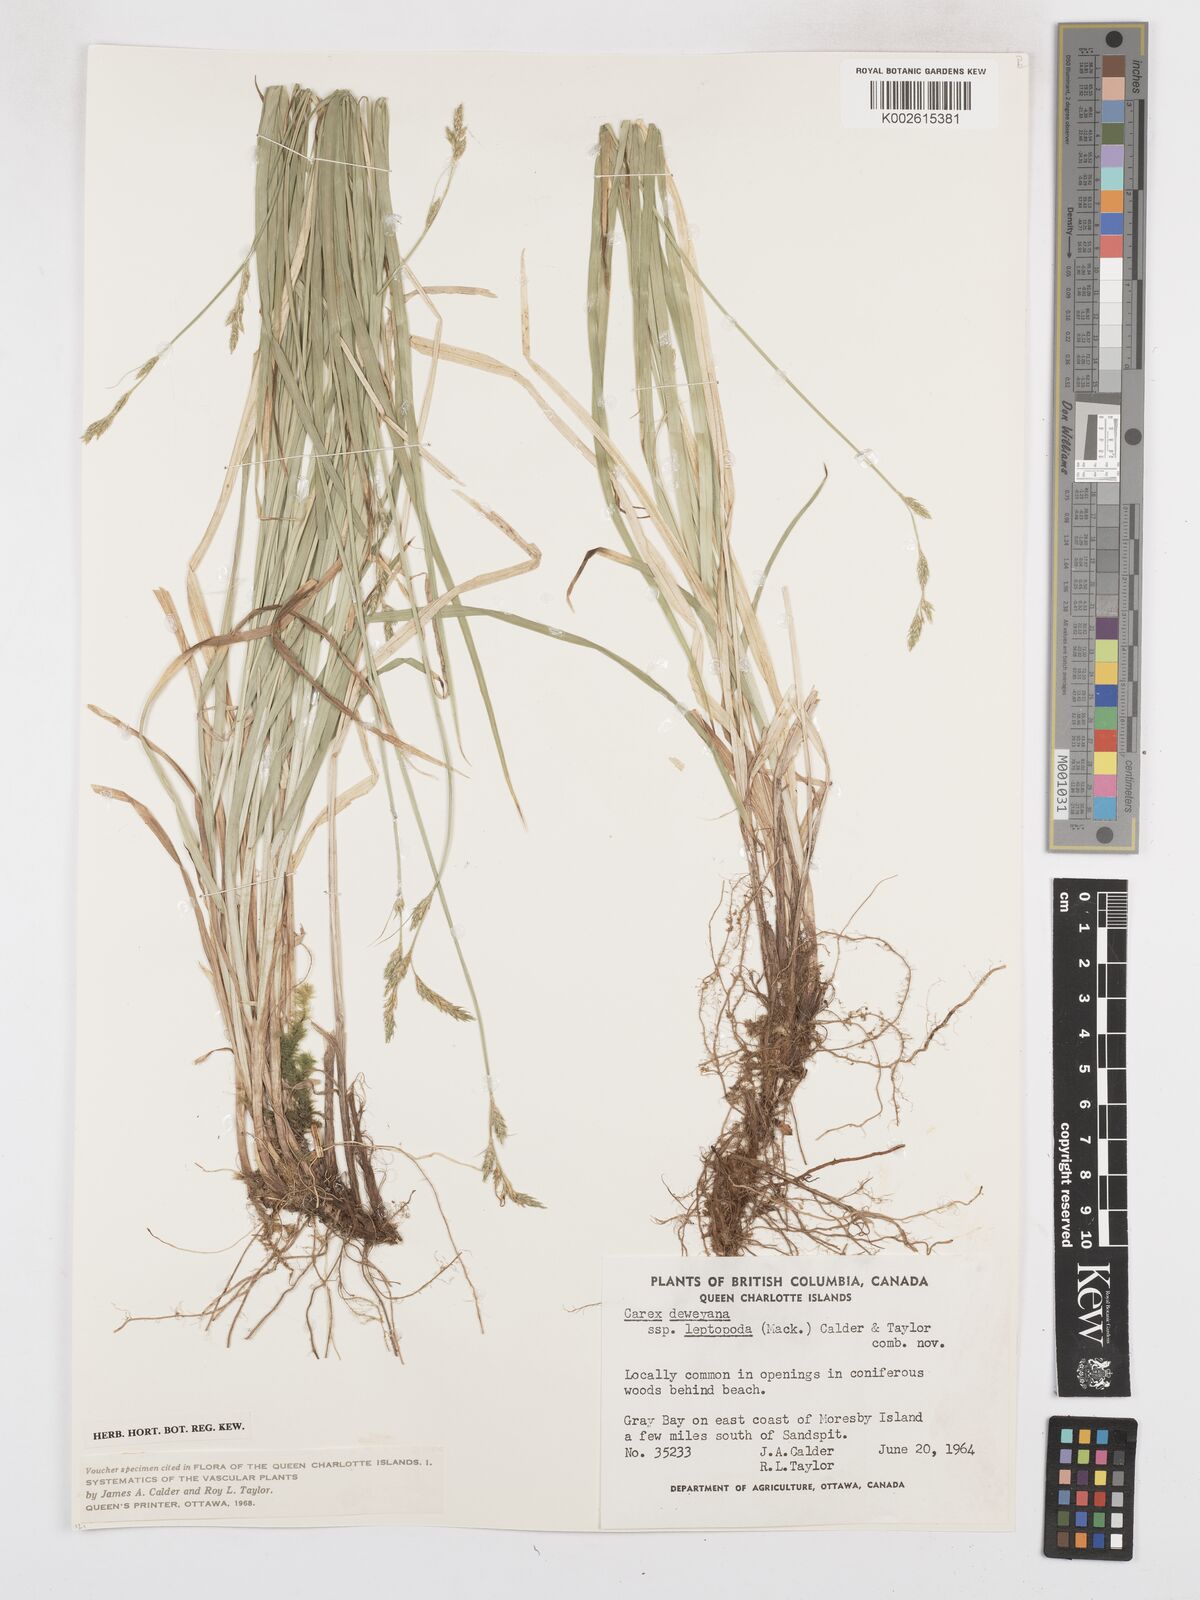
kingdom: Plantae
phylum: Tracheophyta
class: Liliopsida
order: Poales
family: Cyperaceae
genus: Carex
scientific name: Carex leptopoda
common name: Short-scale sedge
